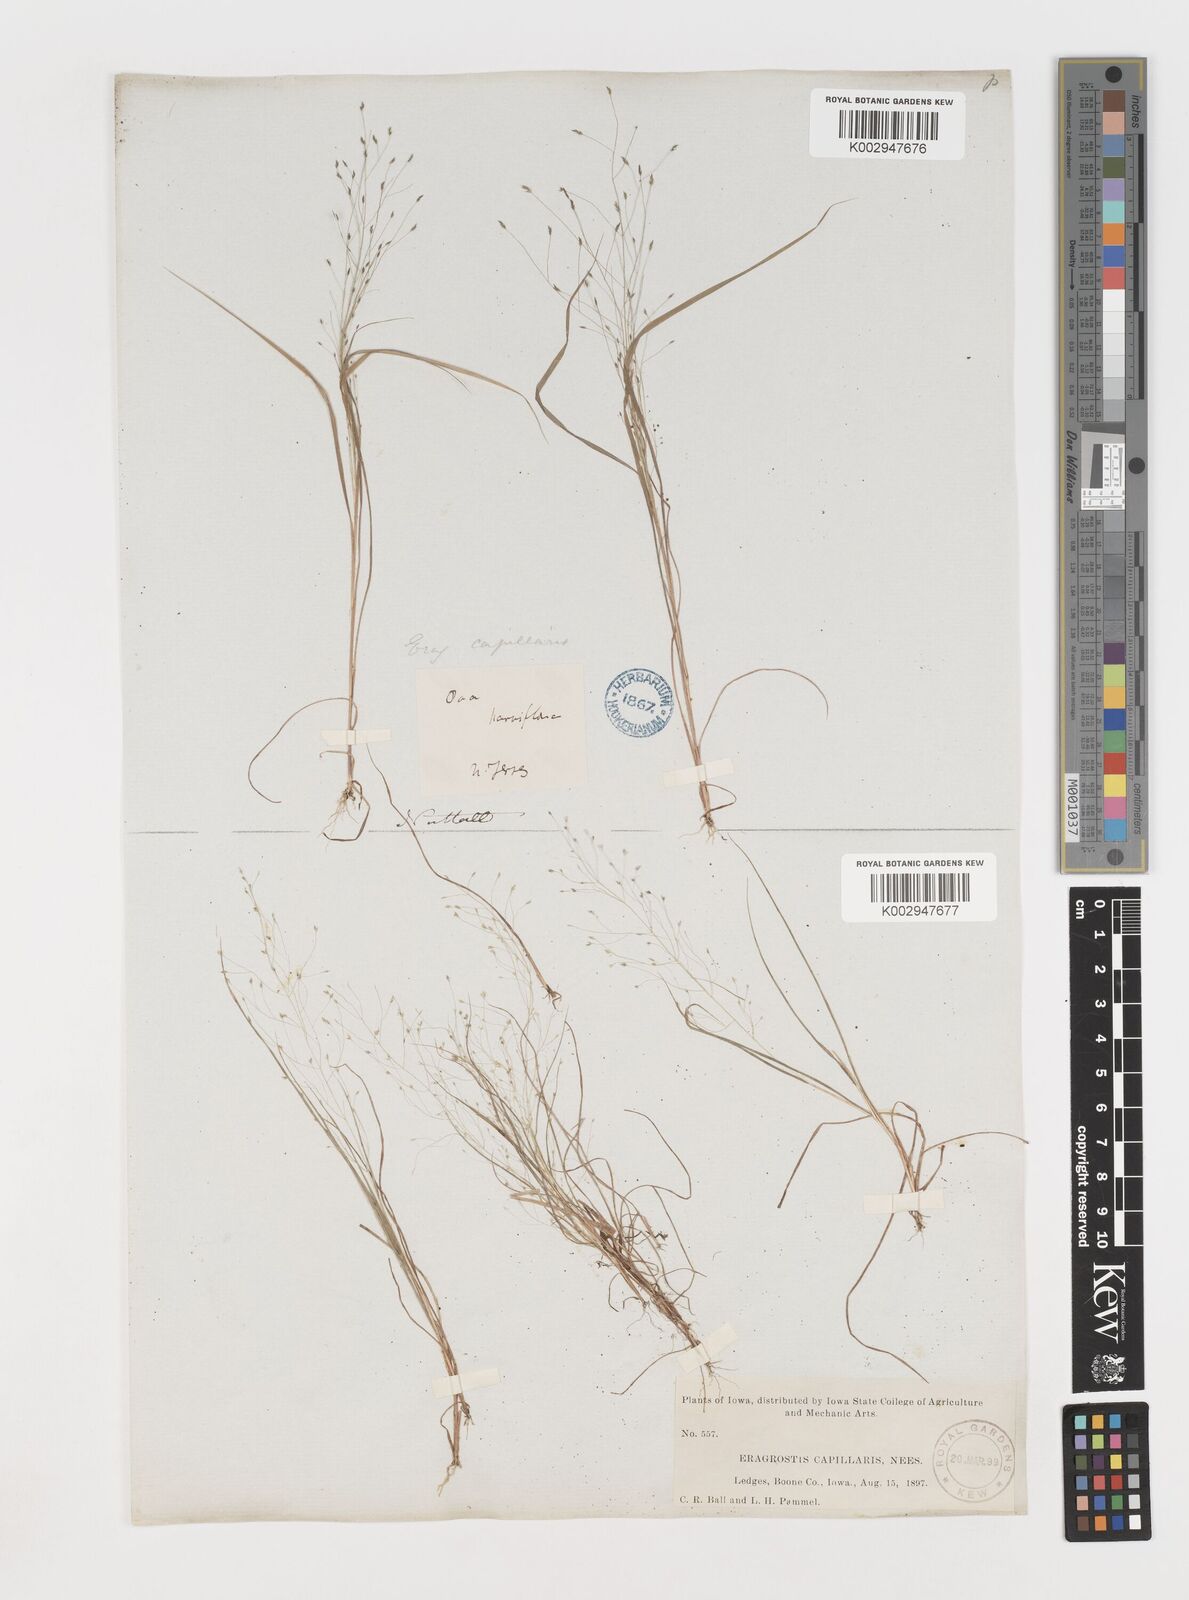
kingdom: Plantae
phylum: Tracheophyta
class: Liliopsida
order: Poales
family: Poaceae
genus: Eragrostis
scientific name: Eragrostis capillaris
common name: Hair-like lovegrass
